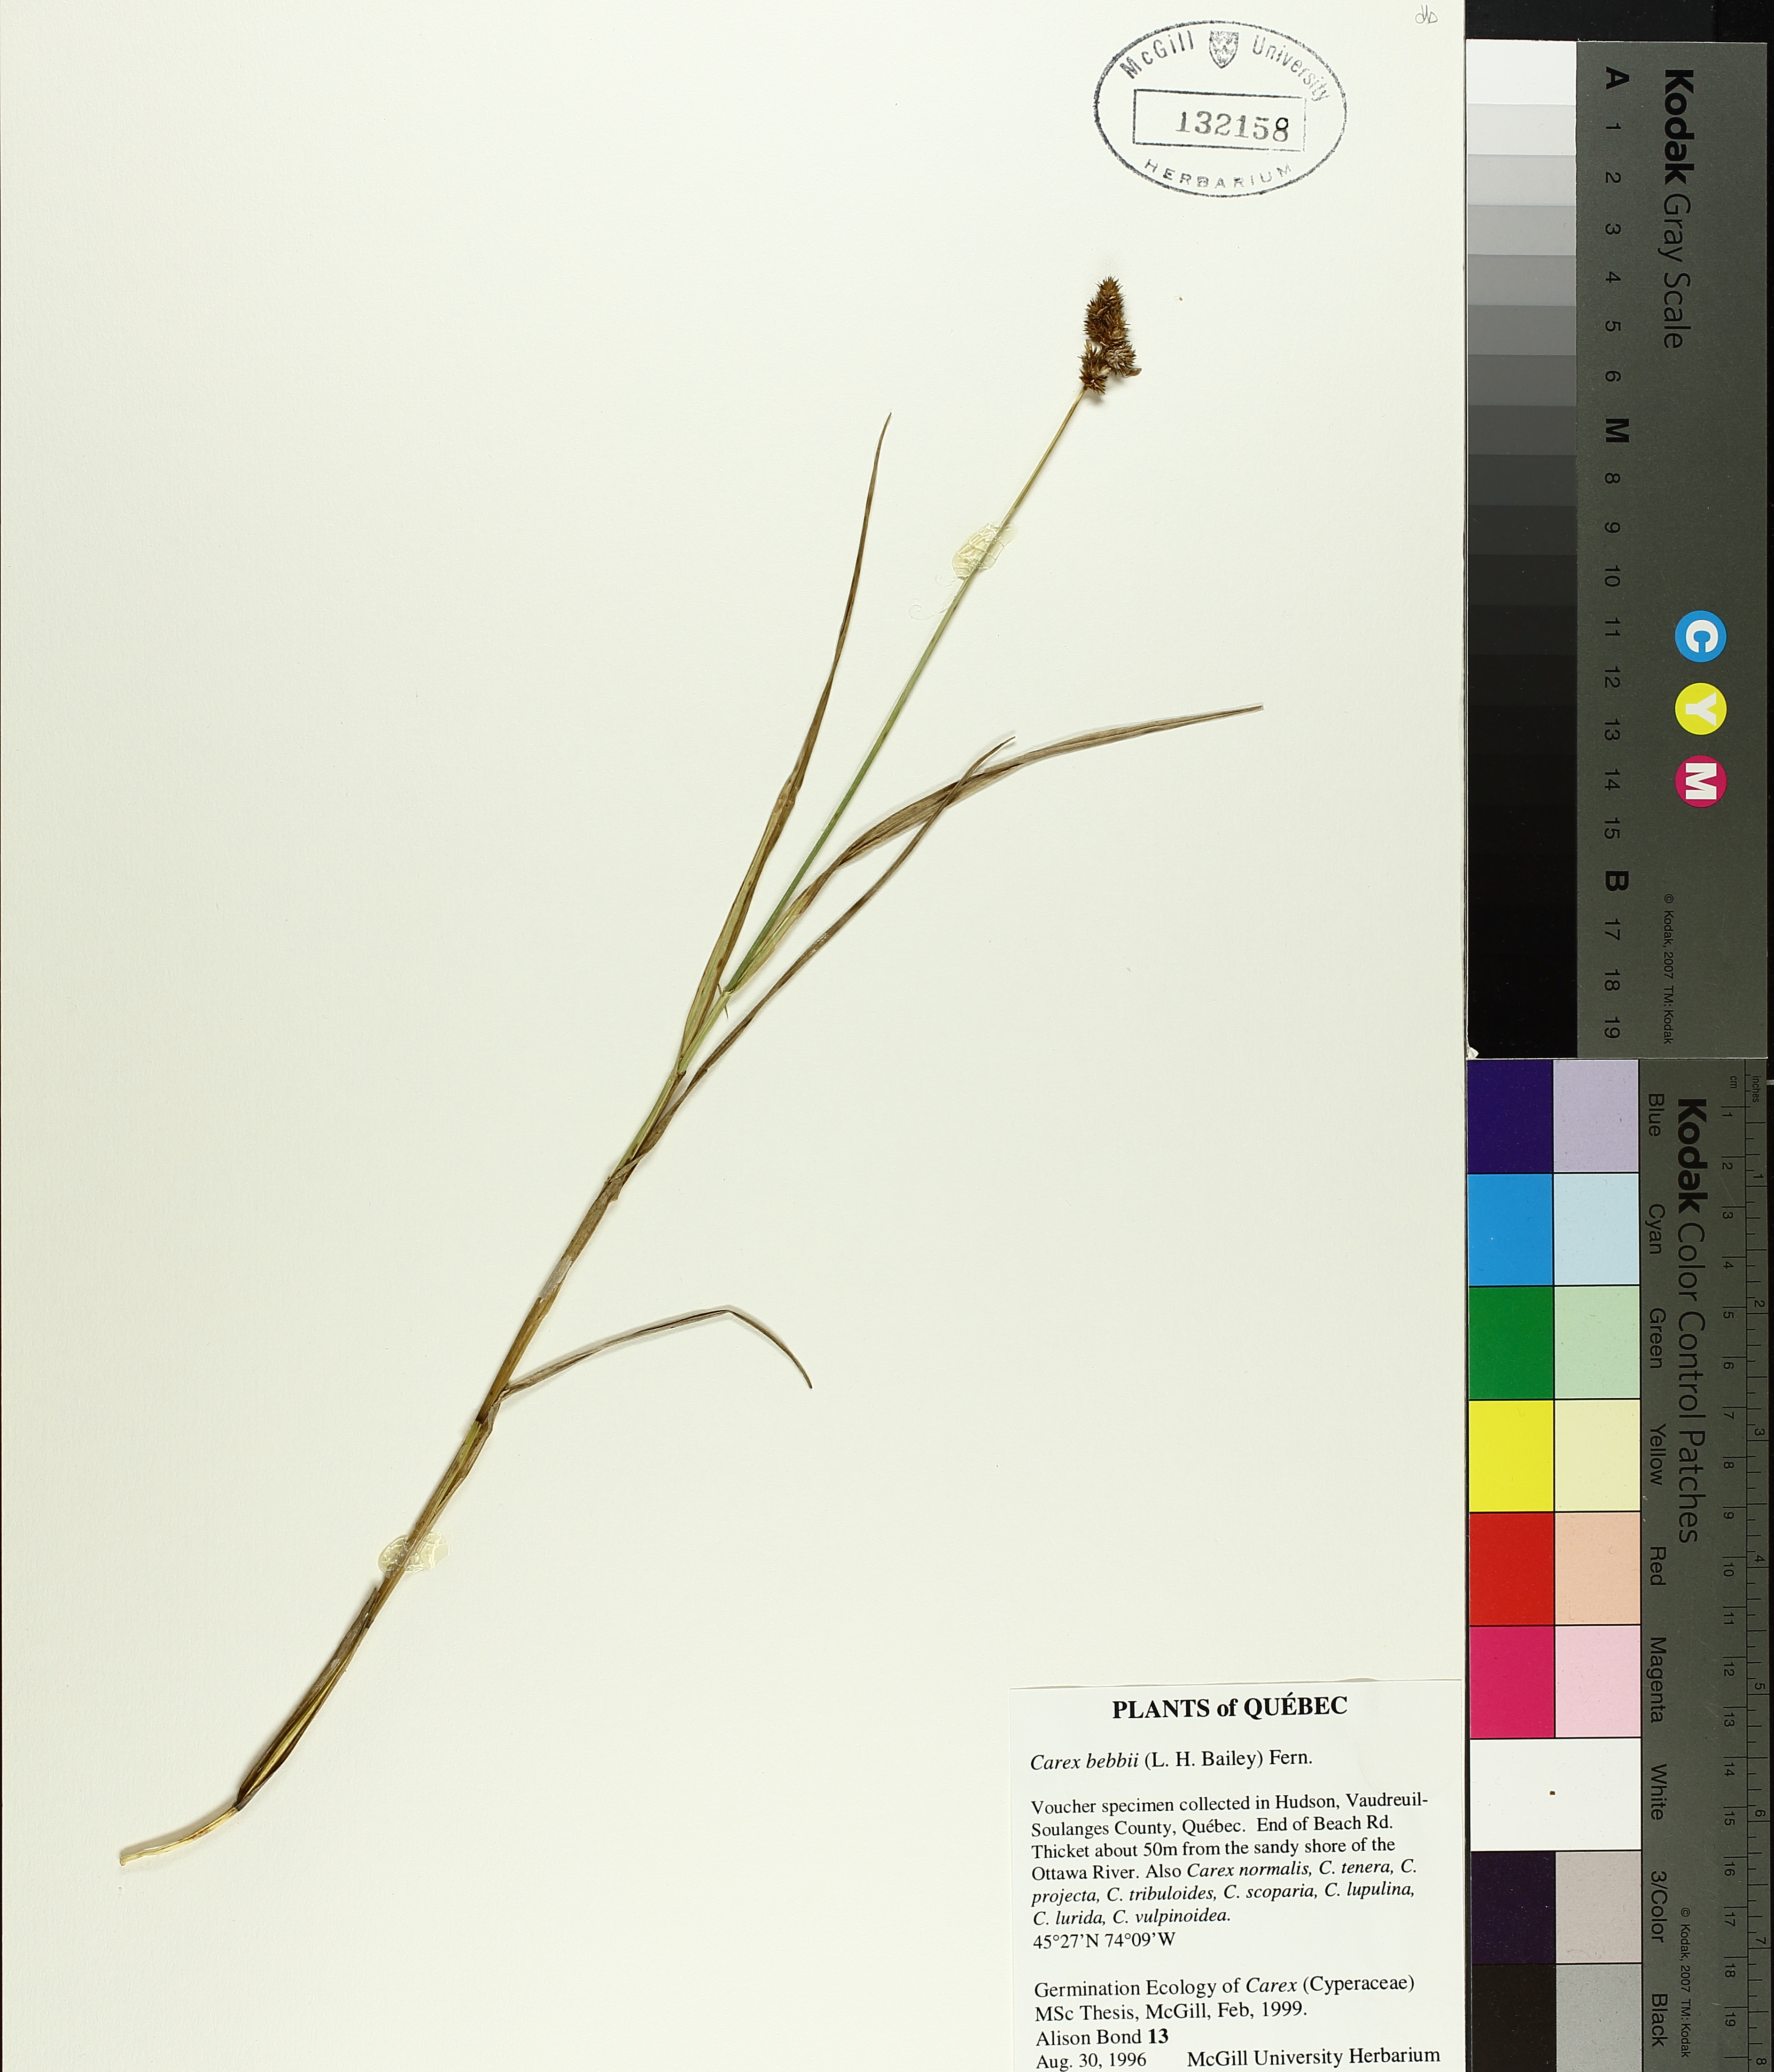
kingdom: Plantae
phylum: Tracheophyta
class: Liliopsida
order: Poales
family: Cyperaceae
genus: Carex
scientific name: Carex bebbii
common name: Bebb's sedge
